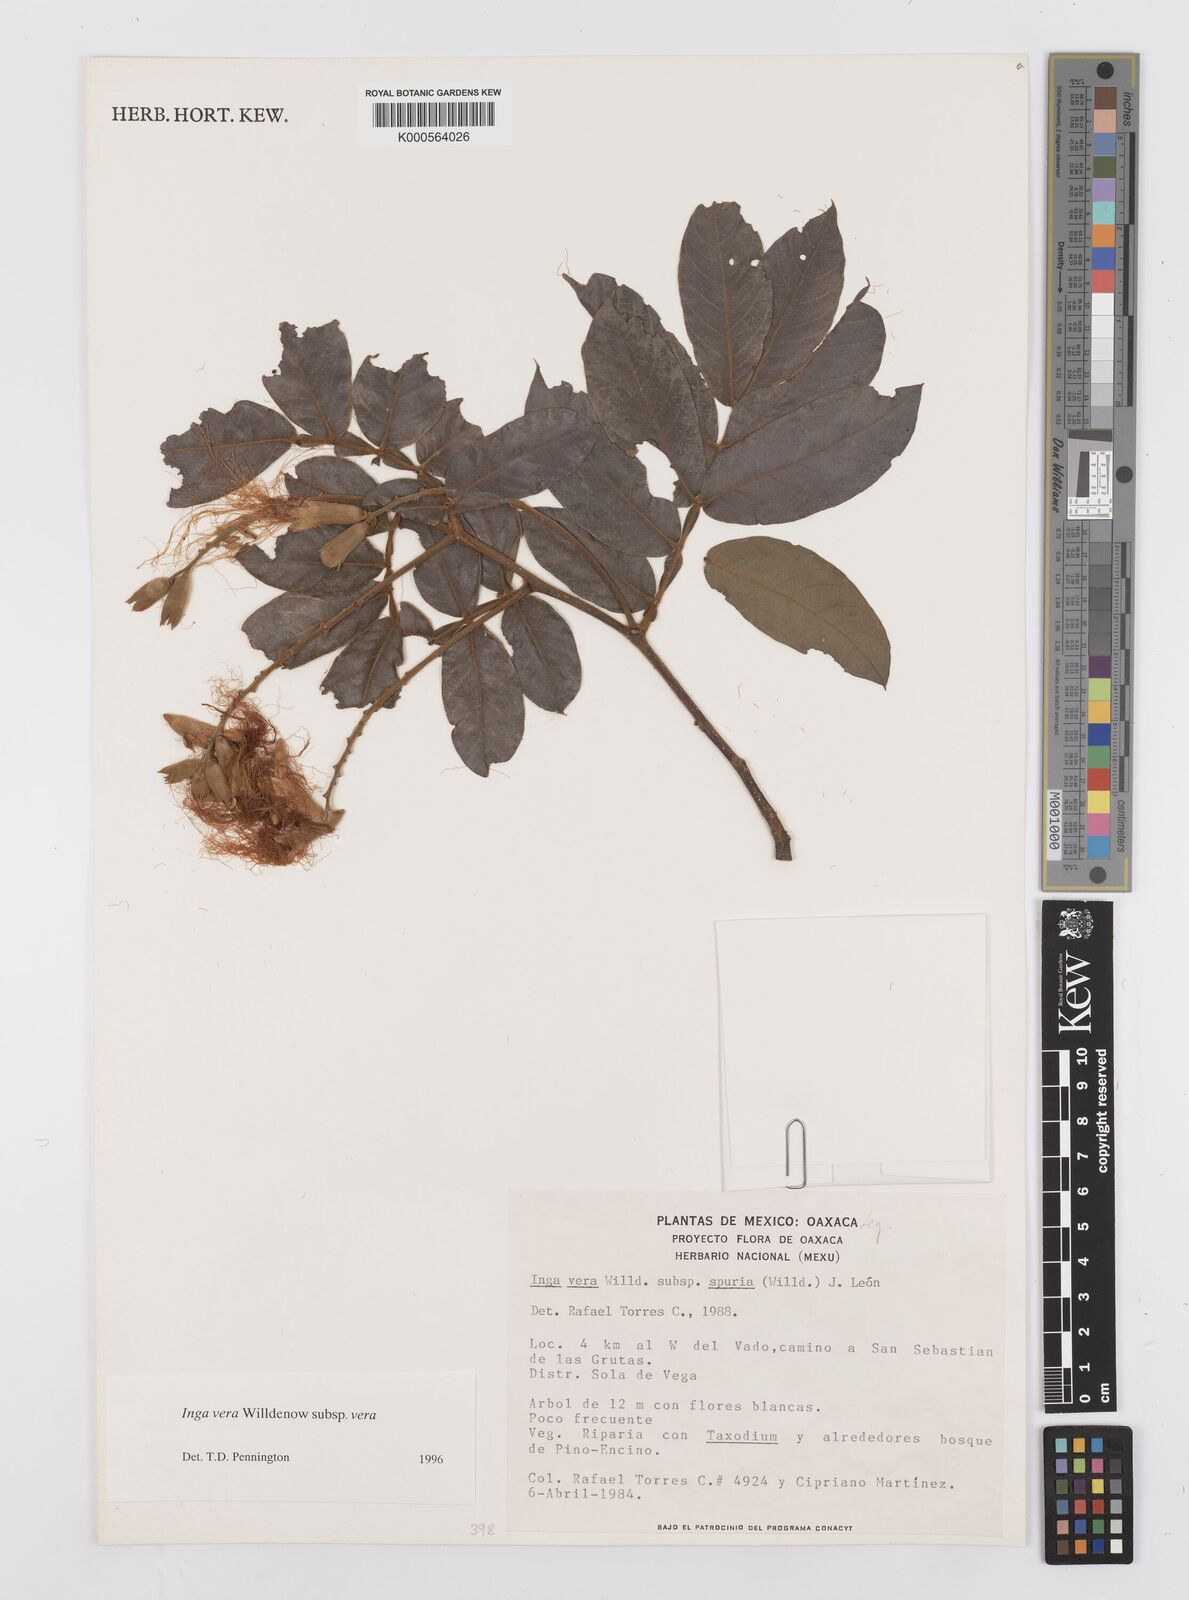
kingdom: Plantae
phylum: Tracheophyta
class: Magnoliopsida
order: Fabales
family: Fabaceae
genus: Inga
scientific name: Inga vera
